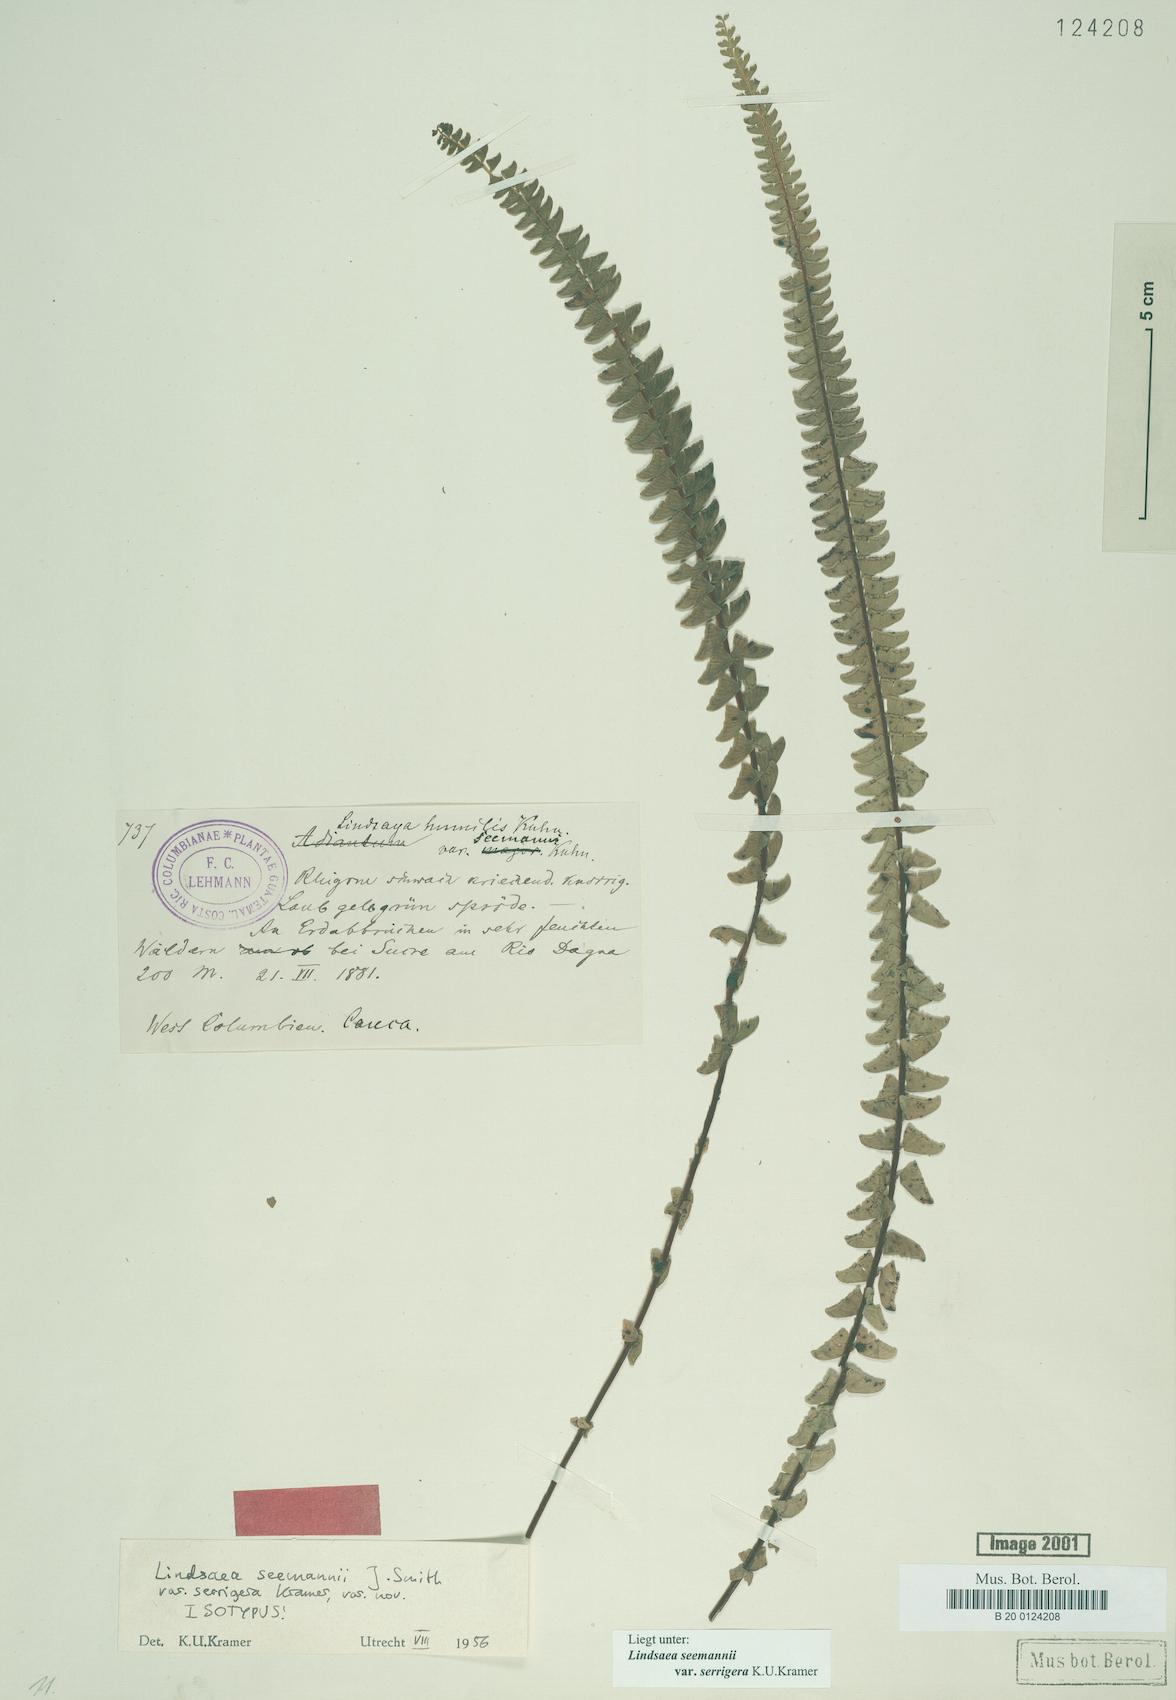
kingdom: Plantae
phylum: Tracheophyta
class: Polypodiopsida
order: Polypodiales
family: Lindsaeaceae
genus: Lindsaea
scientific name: Lindsaea seemannii
